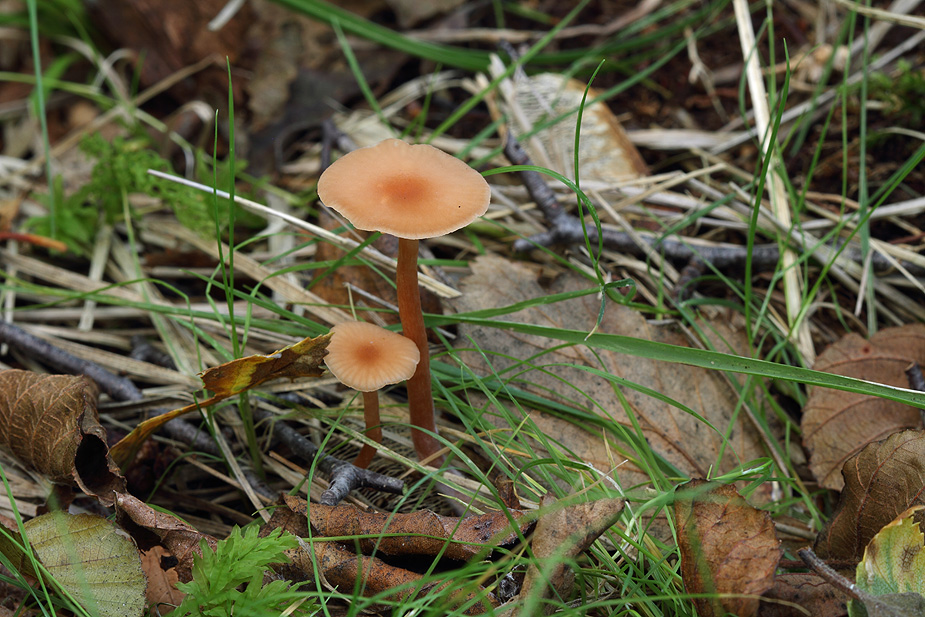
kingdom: Fungi
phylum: Basidiomycota
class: Agaricomycetes
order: Agaricales
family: Hydnangiaceae
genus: Laccaria
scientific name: Laccaria laccata
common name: rød ametysthat
